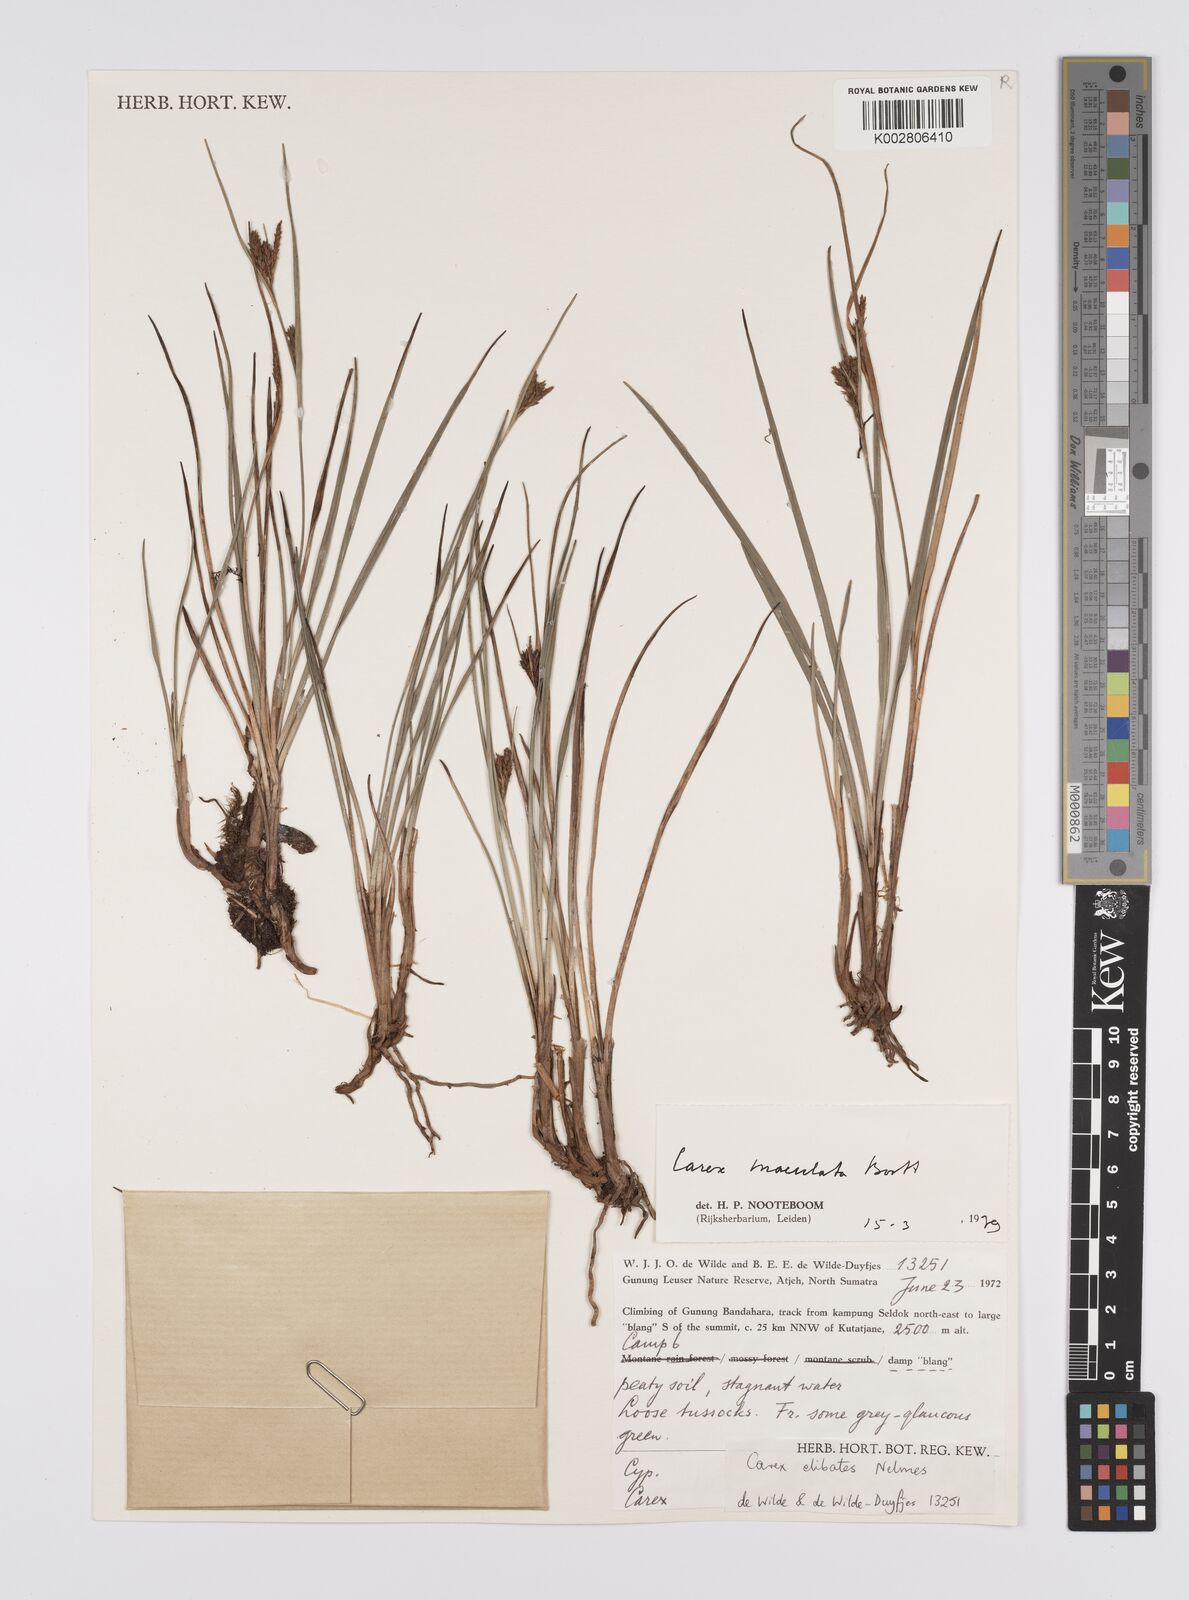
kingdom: Plantae
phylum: Tracheophyta
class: Liliopsida
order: Poales
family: Cyperaceae
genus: Carex
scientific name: Carex maculata
